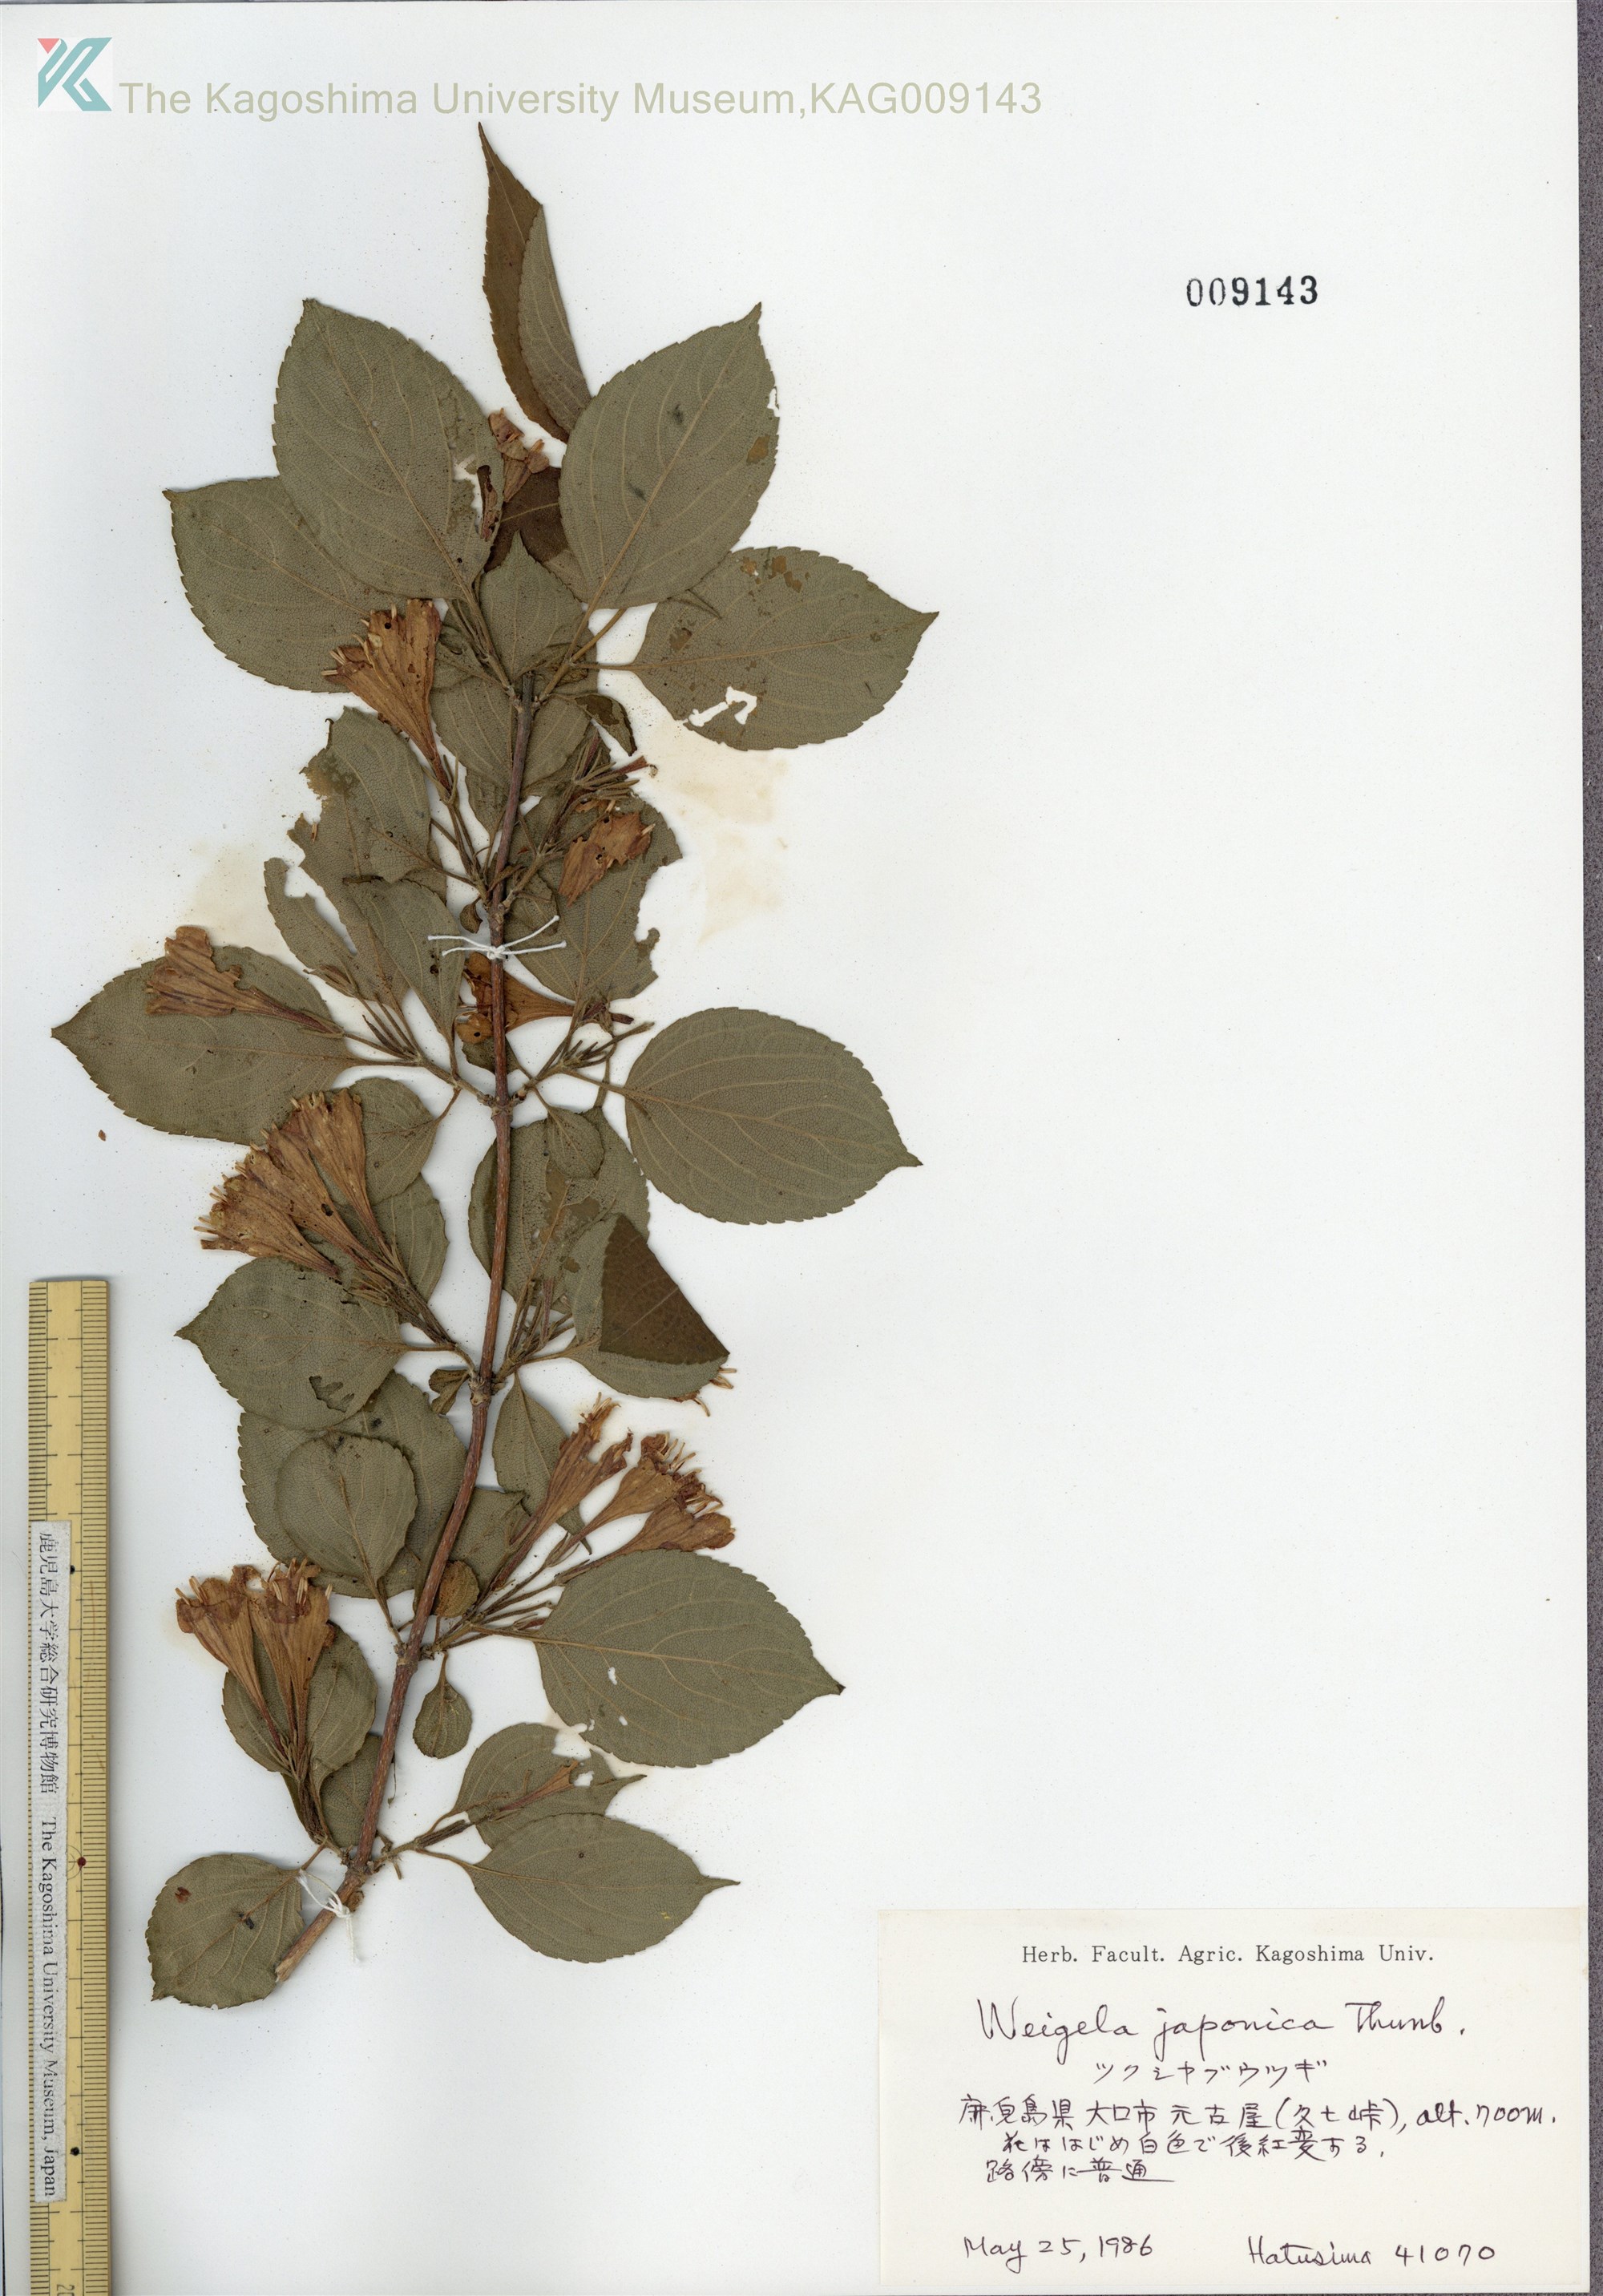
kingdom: Plantae
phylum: Tracheophyta
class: Magnoliopsida
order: Dipsacales
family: Caprifoliaceae
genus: Weigela
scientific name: Weigela japonica
